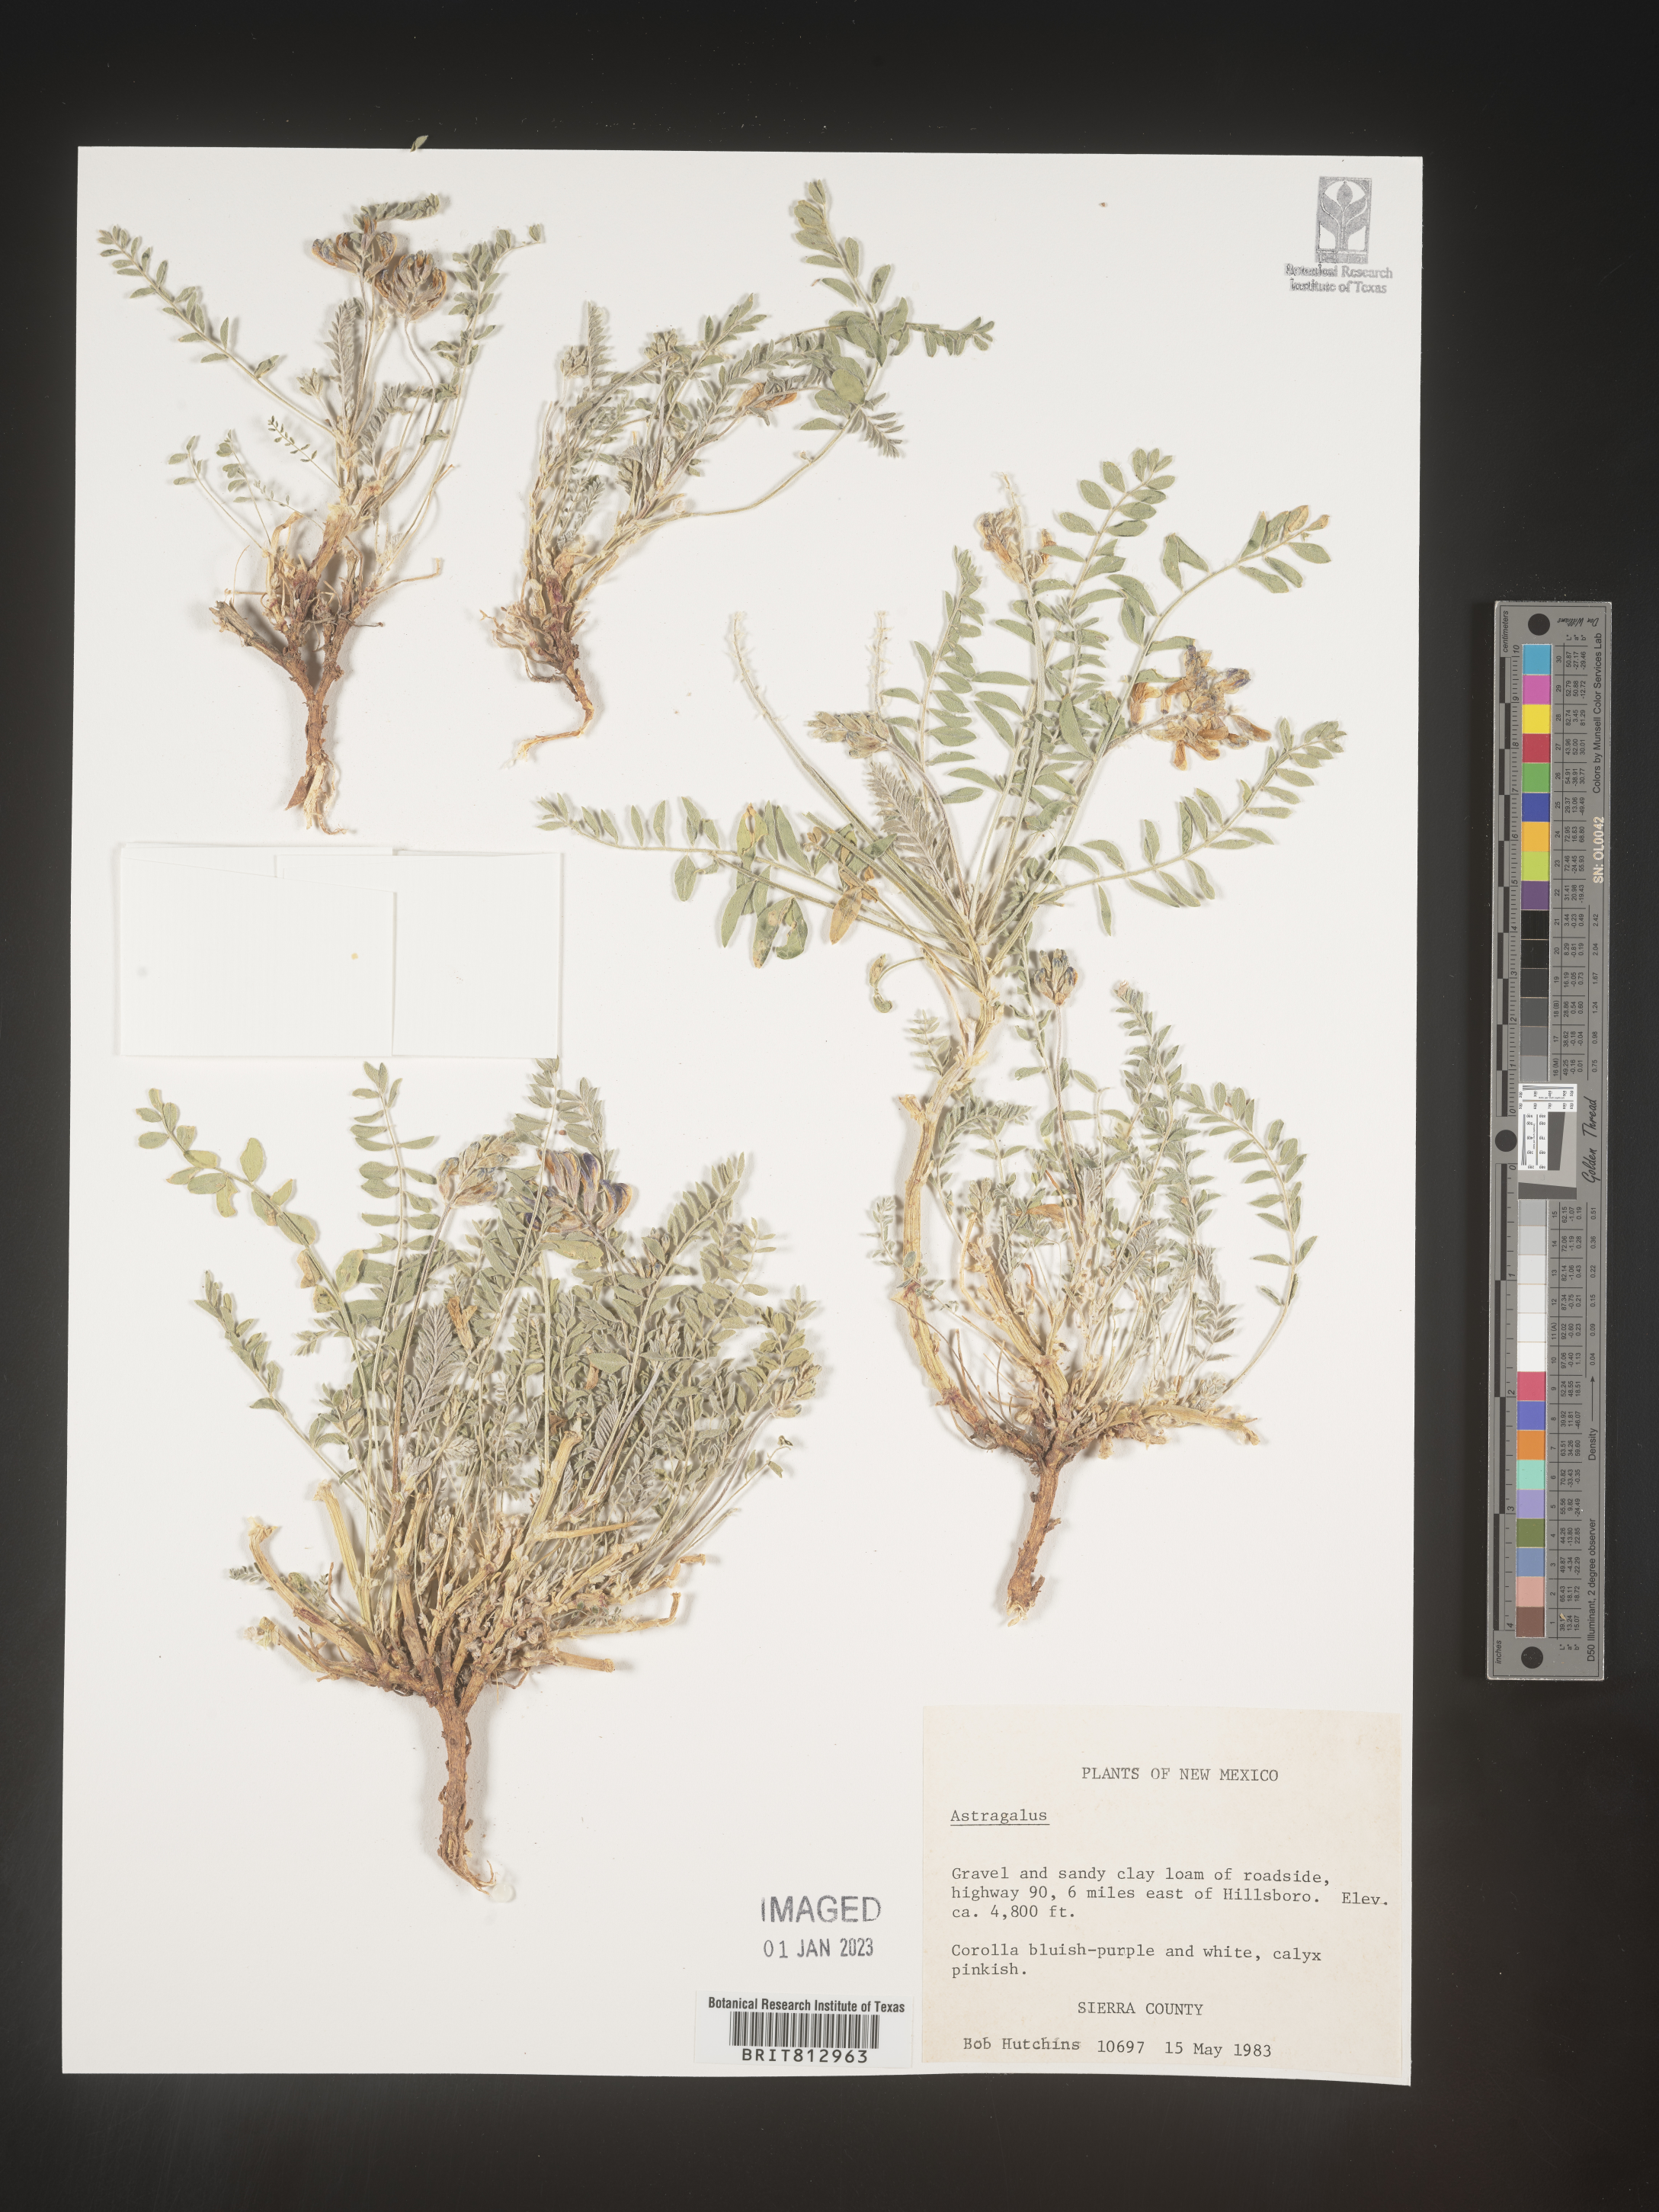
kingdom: Plantae
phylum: Tracheophyta
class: Magnoliopsida
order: Fabales
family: Fabaceae
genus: Astragalus
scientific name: Astragalus
